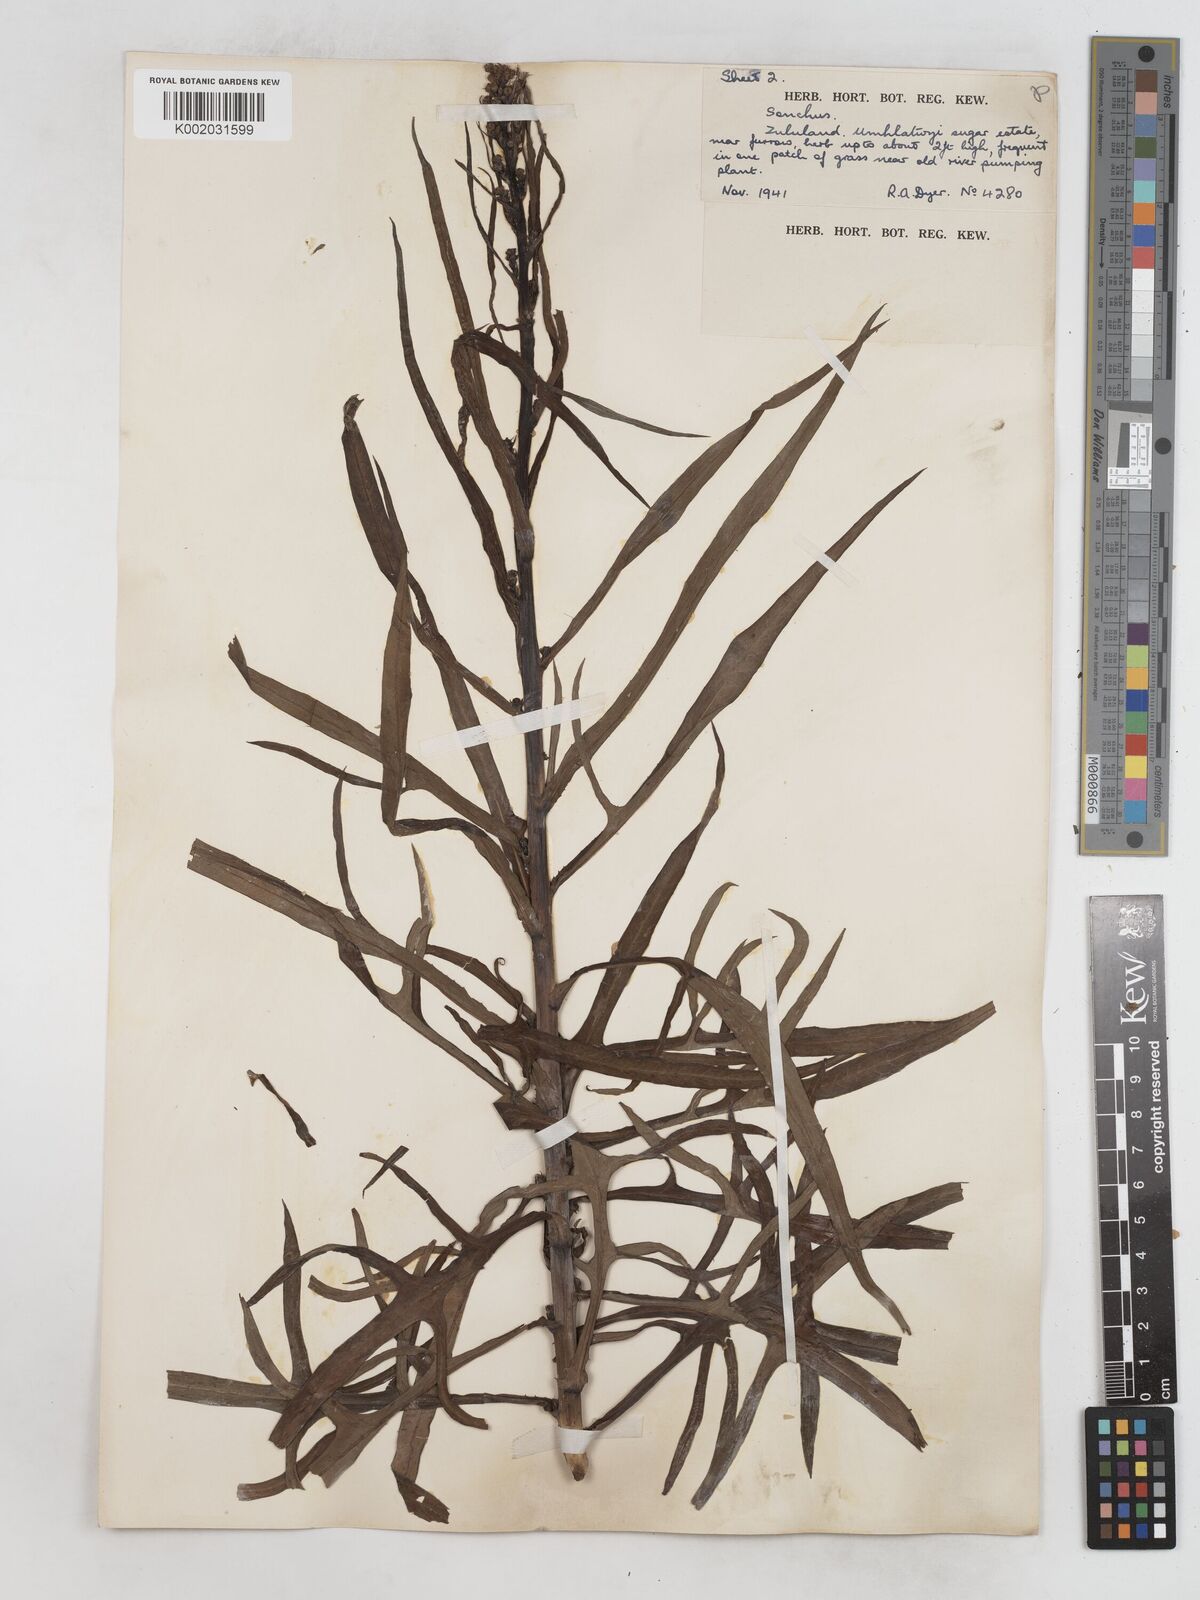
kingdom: Plantae
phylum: Tracheophyta
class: Magnoliopsida
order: Asterales
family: Asteraceae
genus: Lactuca
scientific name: Lactuca indica
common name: Wild lettuce
